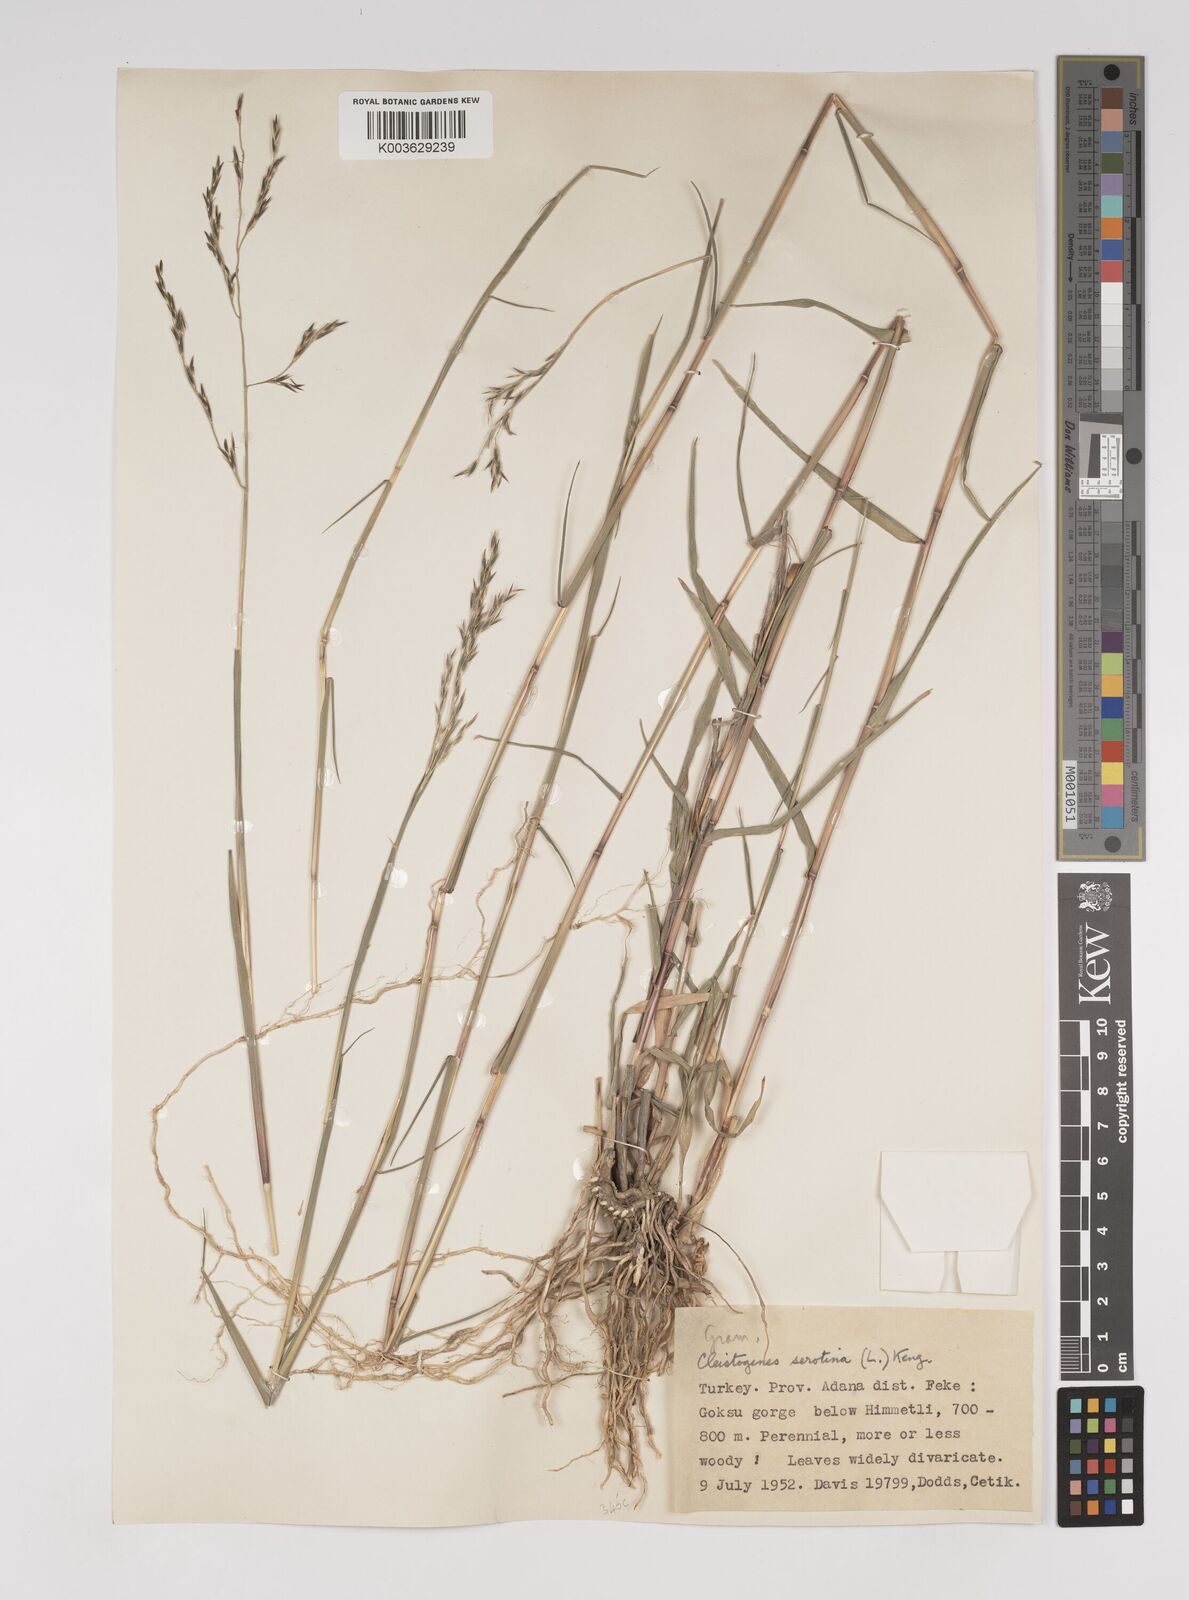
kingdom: Plantae
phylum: Tracheophyta
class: Liliopsida
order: Poales
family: Poaceae
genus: Cleistogenes
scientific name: Cleistogenes serotina
